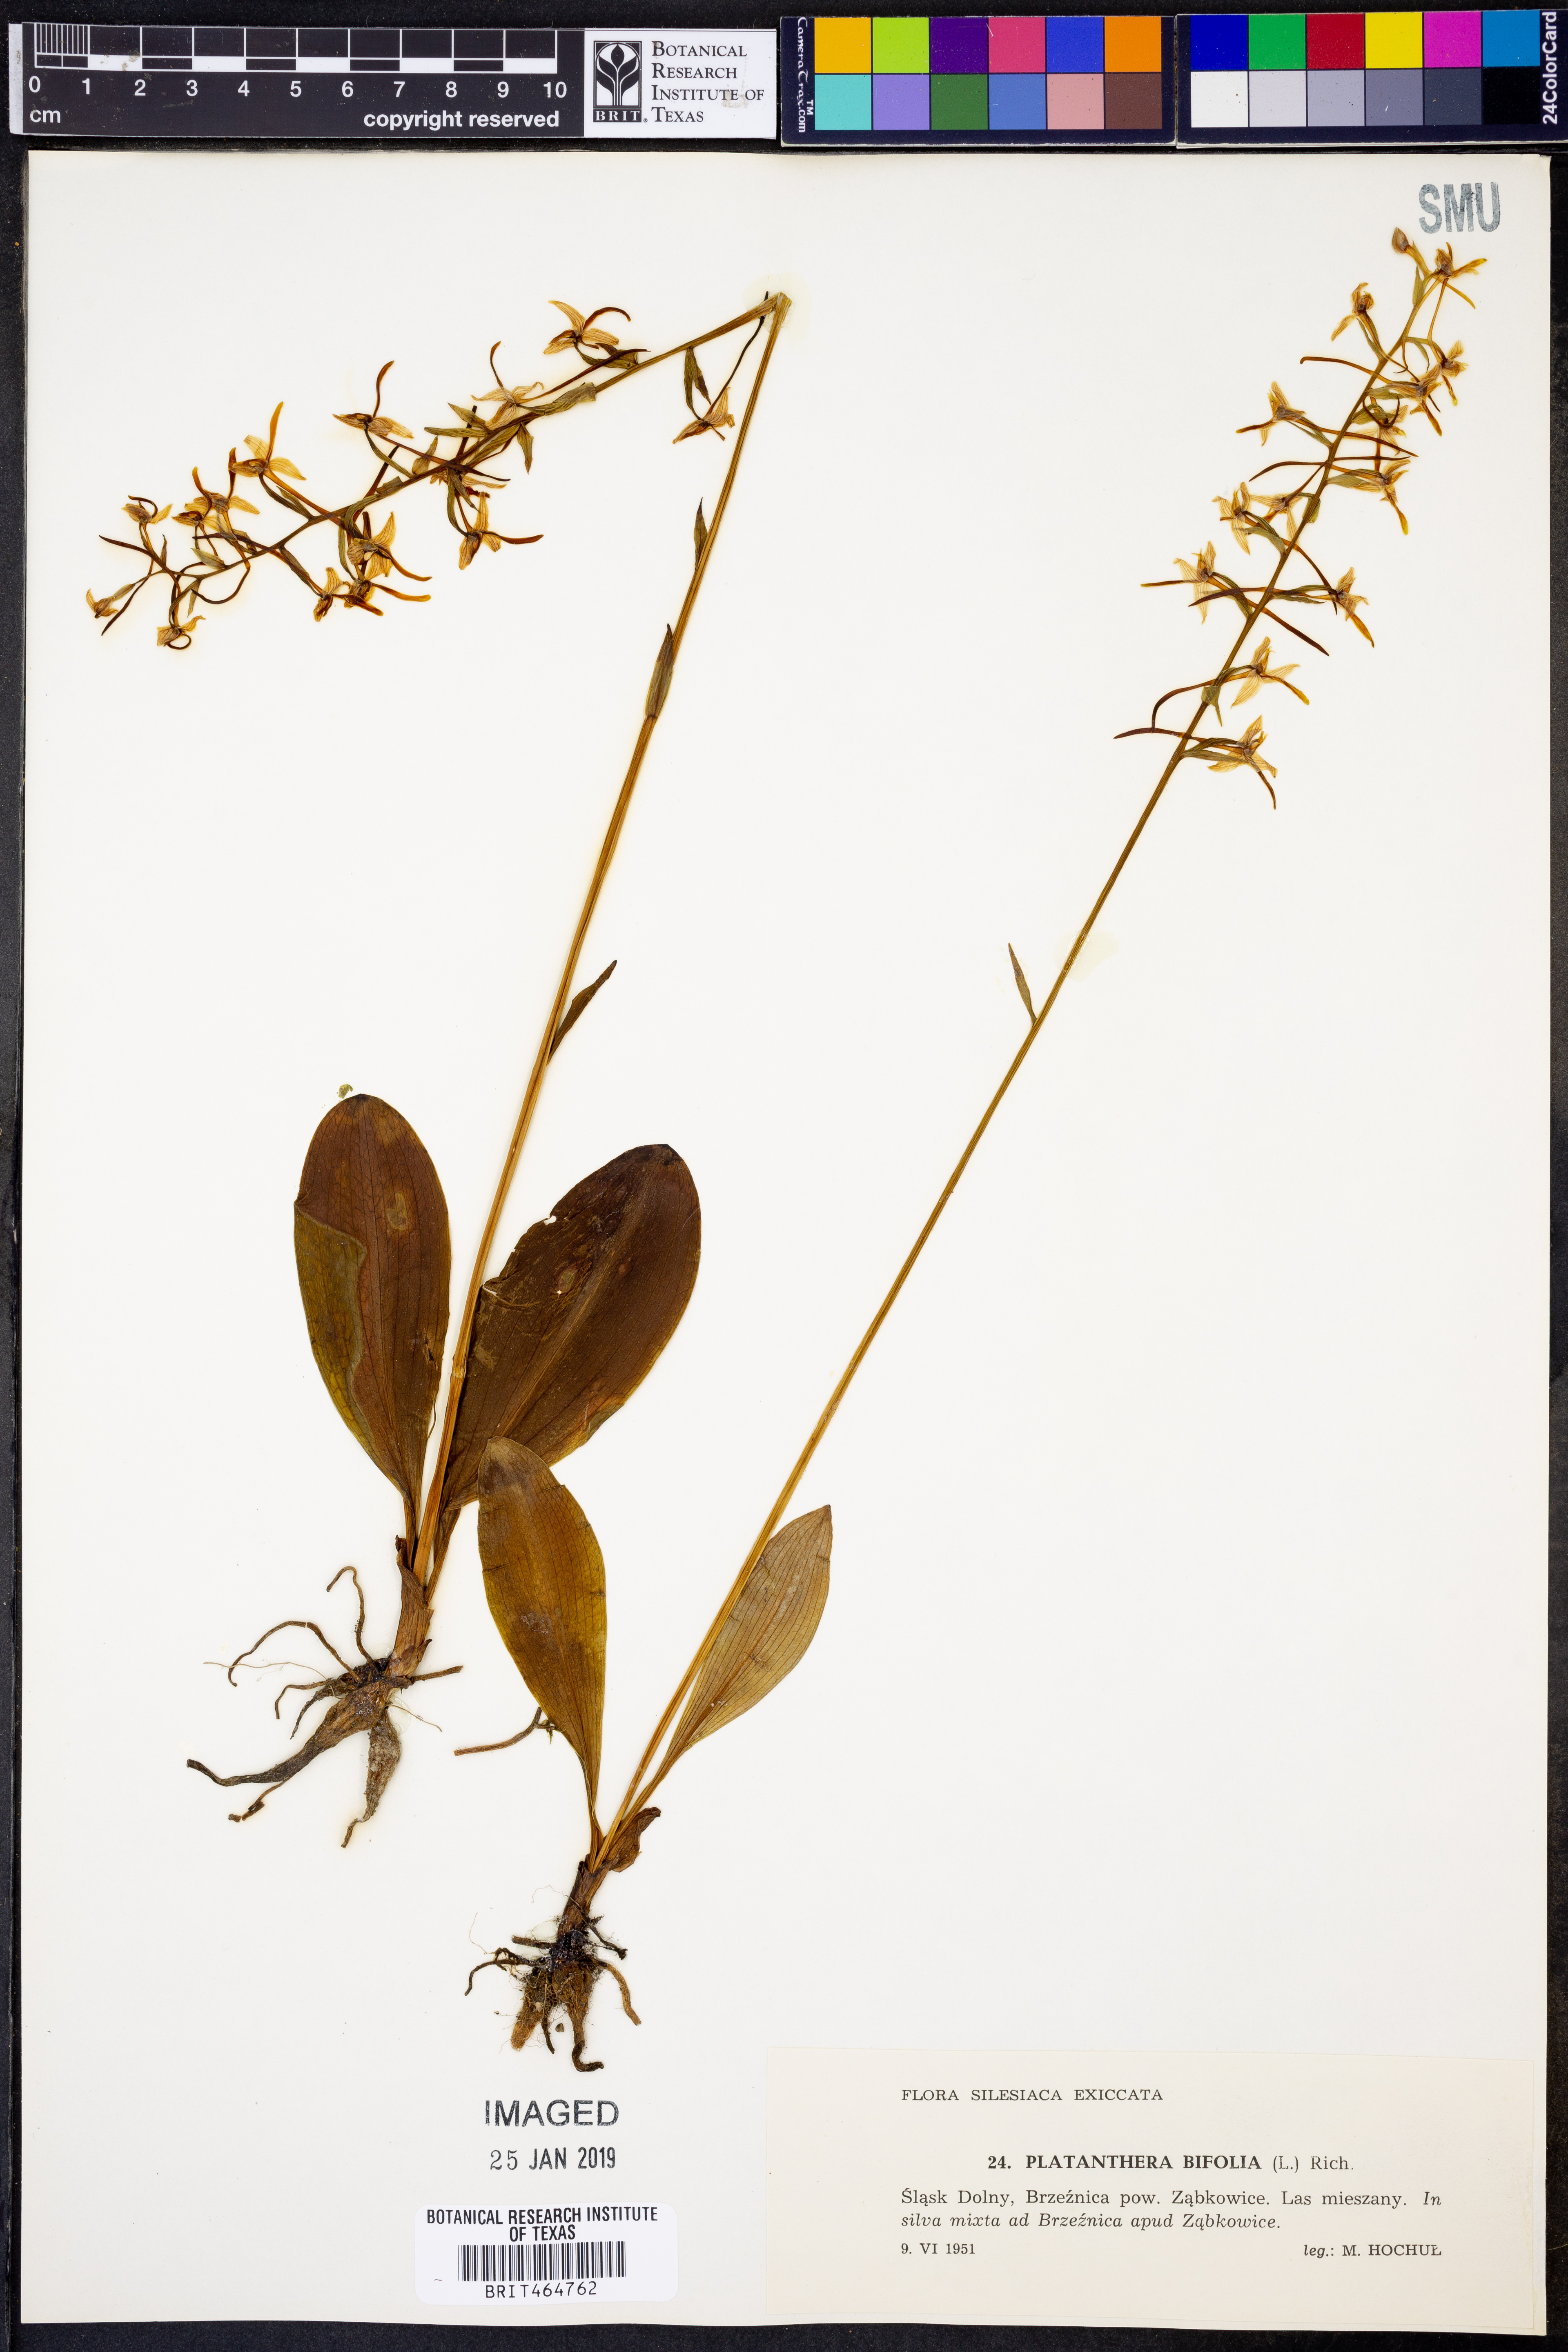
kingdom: Plantae
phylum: Tracheophyta
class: Liliopsida
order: Asparagales
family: Orchidaceae
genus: Platanthera
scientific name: Platanthera bifolia
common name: Lesser butterfly-orchid
